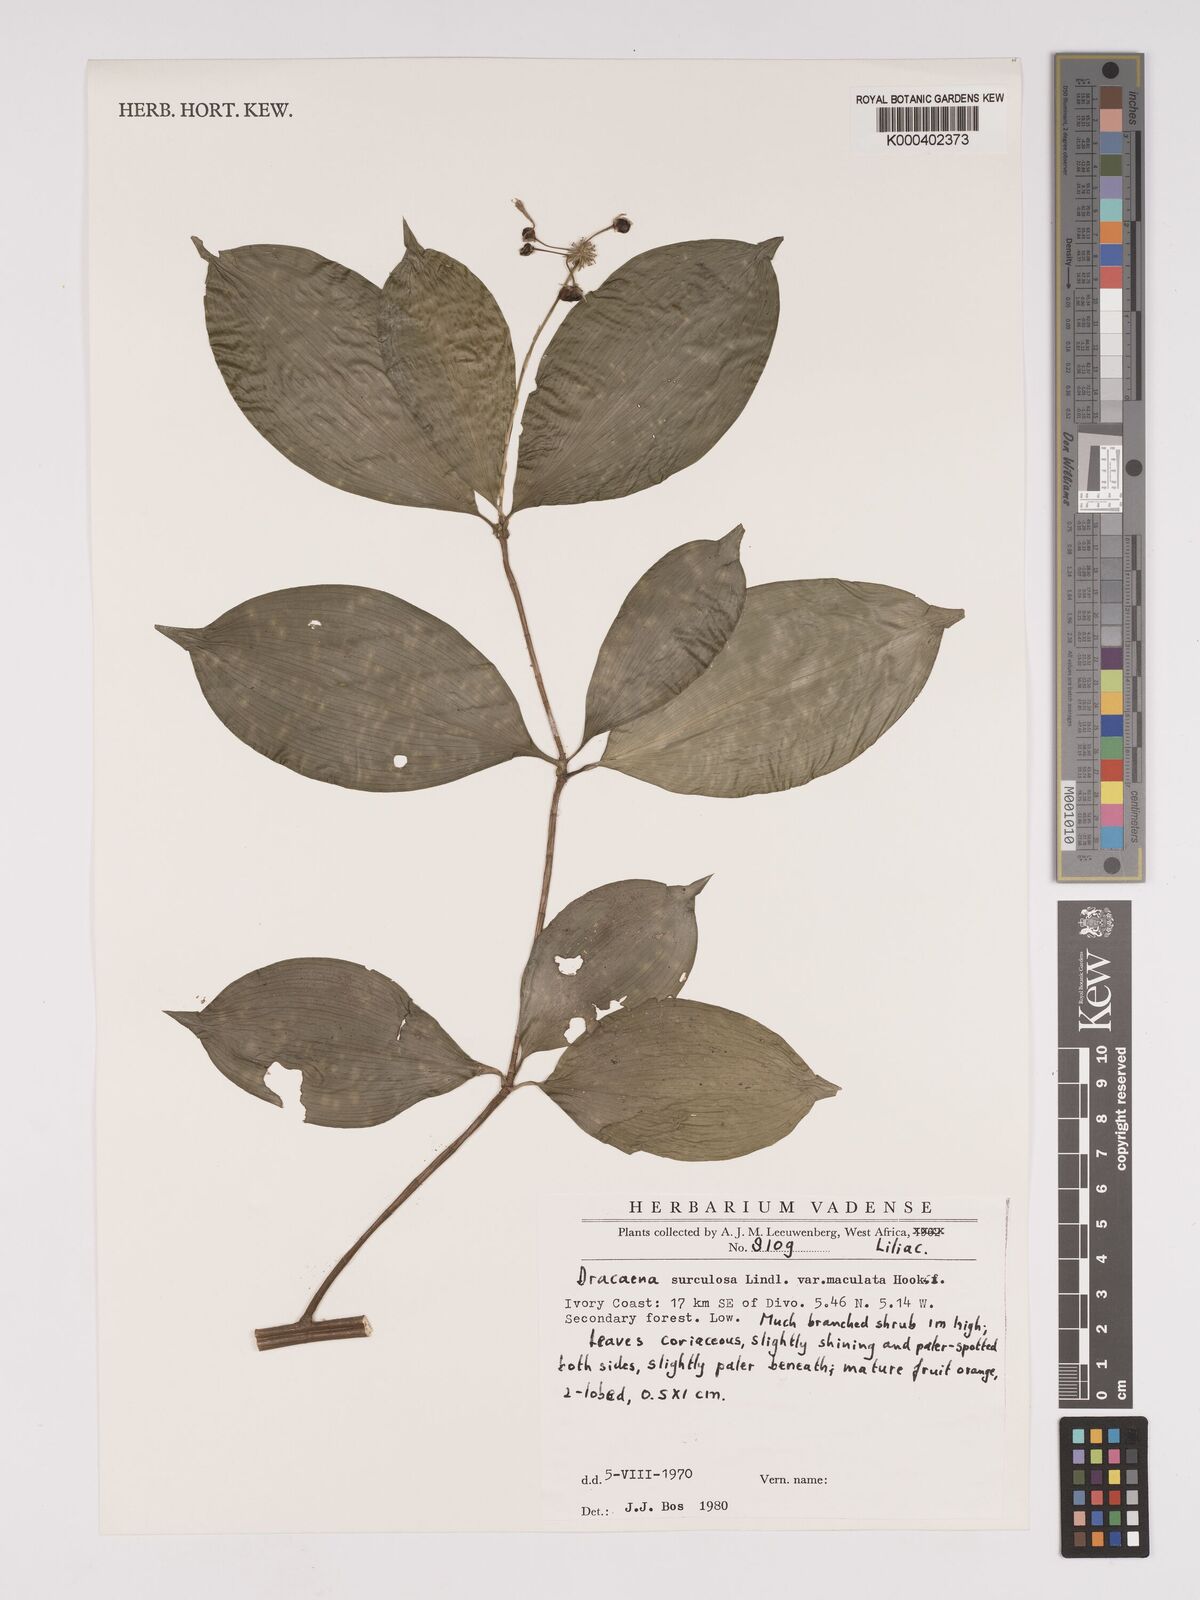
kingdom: Plantae
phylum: Tracheophyta
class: Liliopsida
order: Asparagales
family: Asparagaceae
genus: Dracaena
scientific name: Dracaena surculosa
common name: Spotted dracaena
